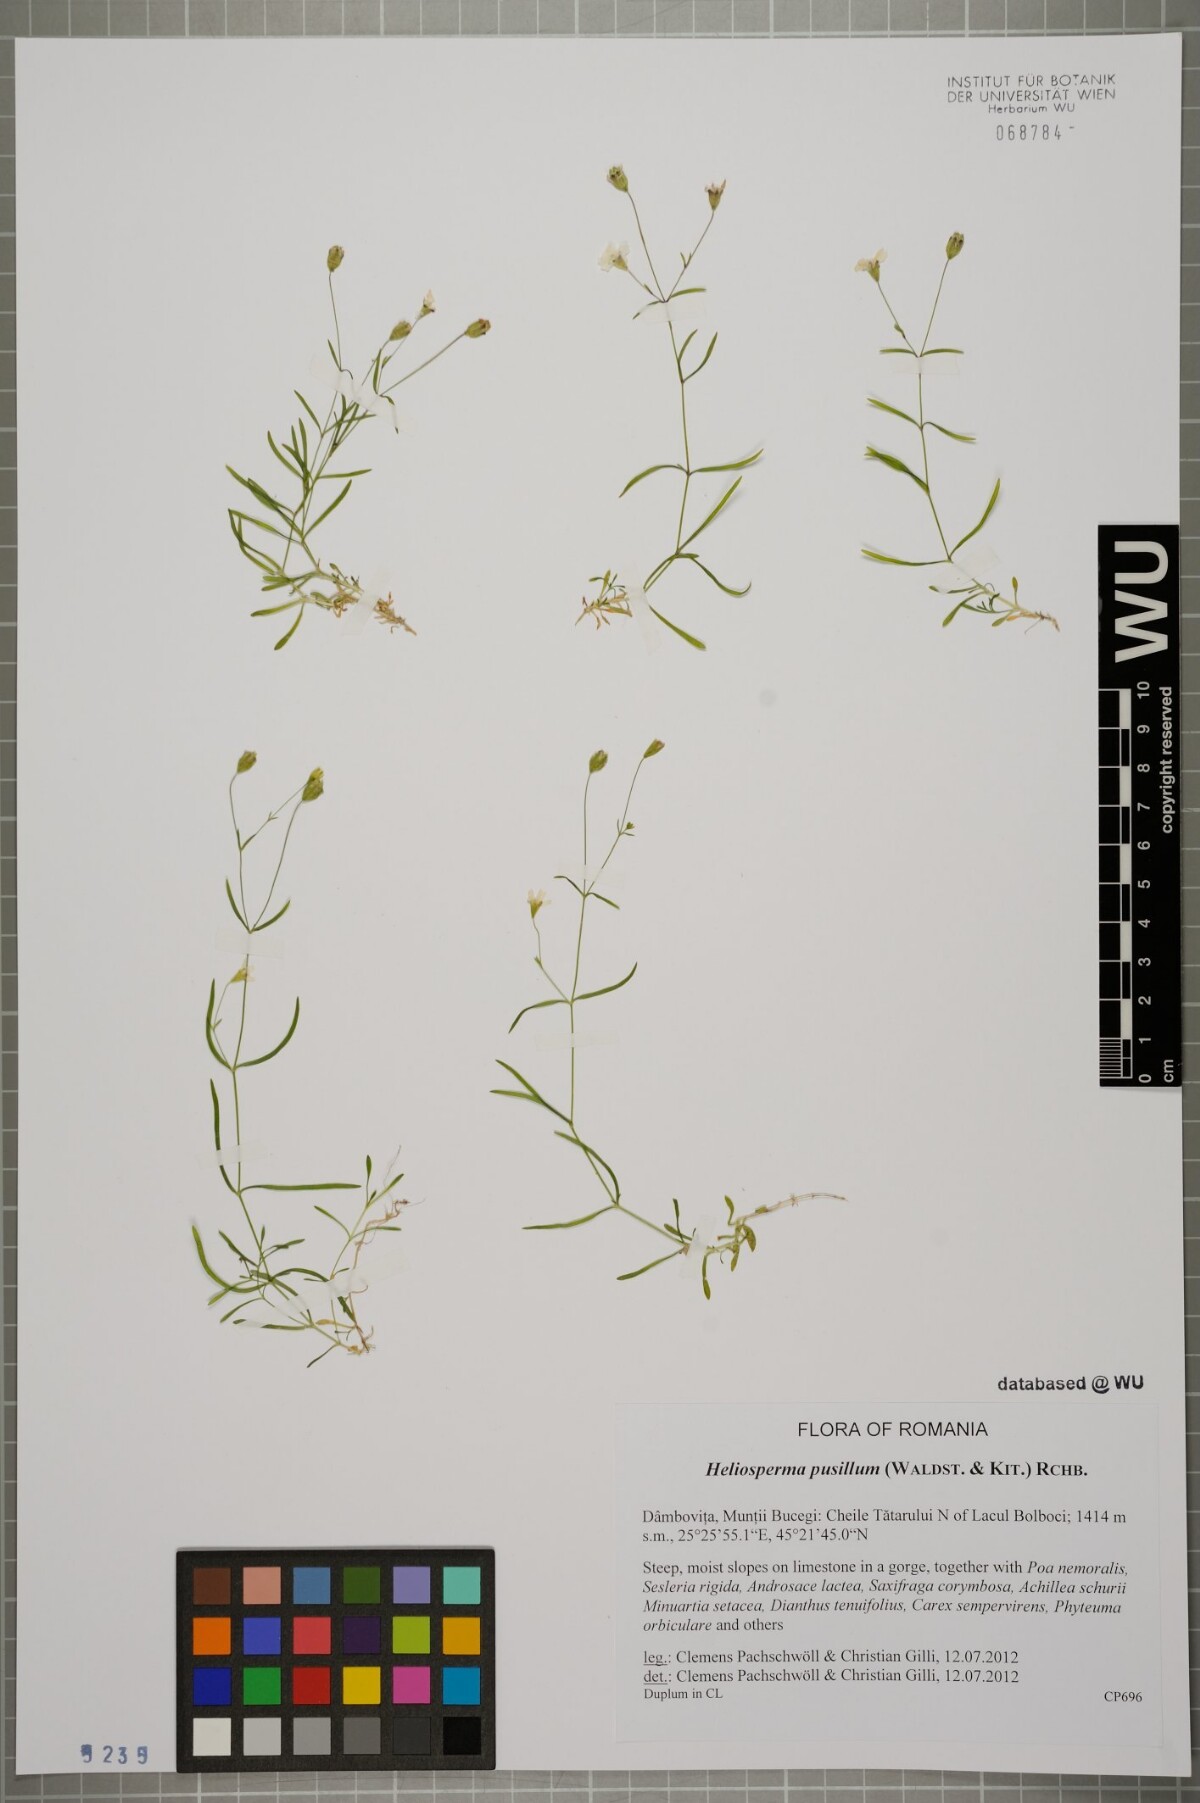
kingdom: Plantae
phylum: Tracheophyta
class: Magnoliopsida
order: Caryophyllales
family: Caryophyllaceae
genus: Heliosperma
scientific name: Heliosperma pusillum
